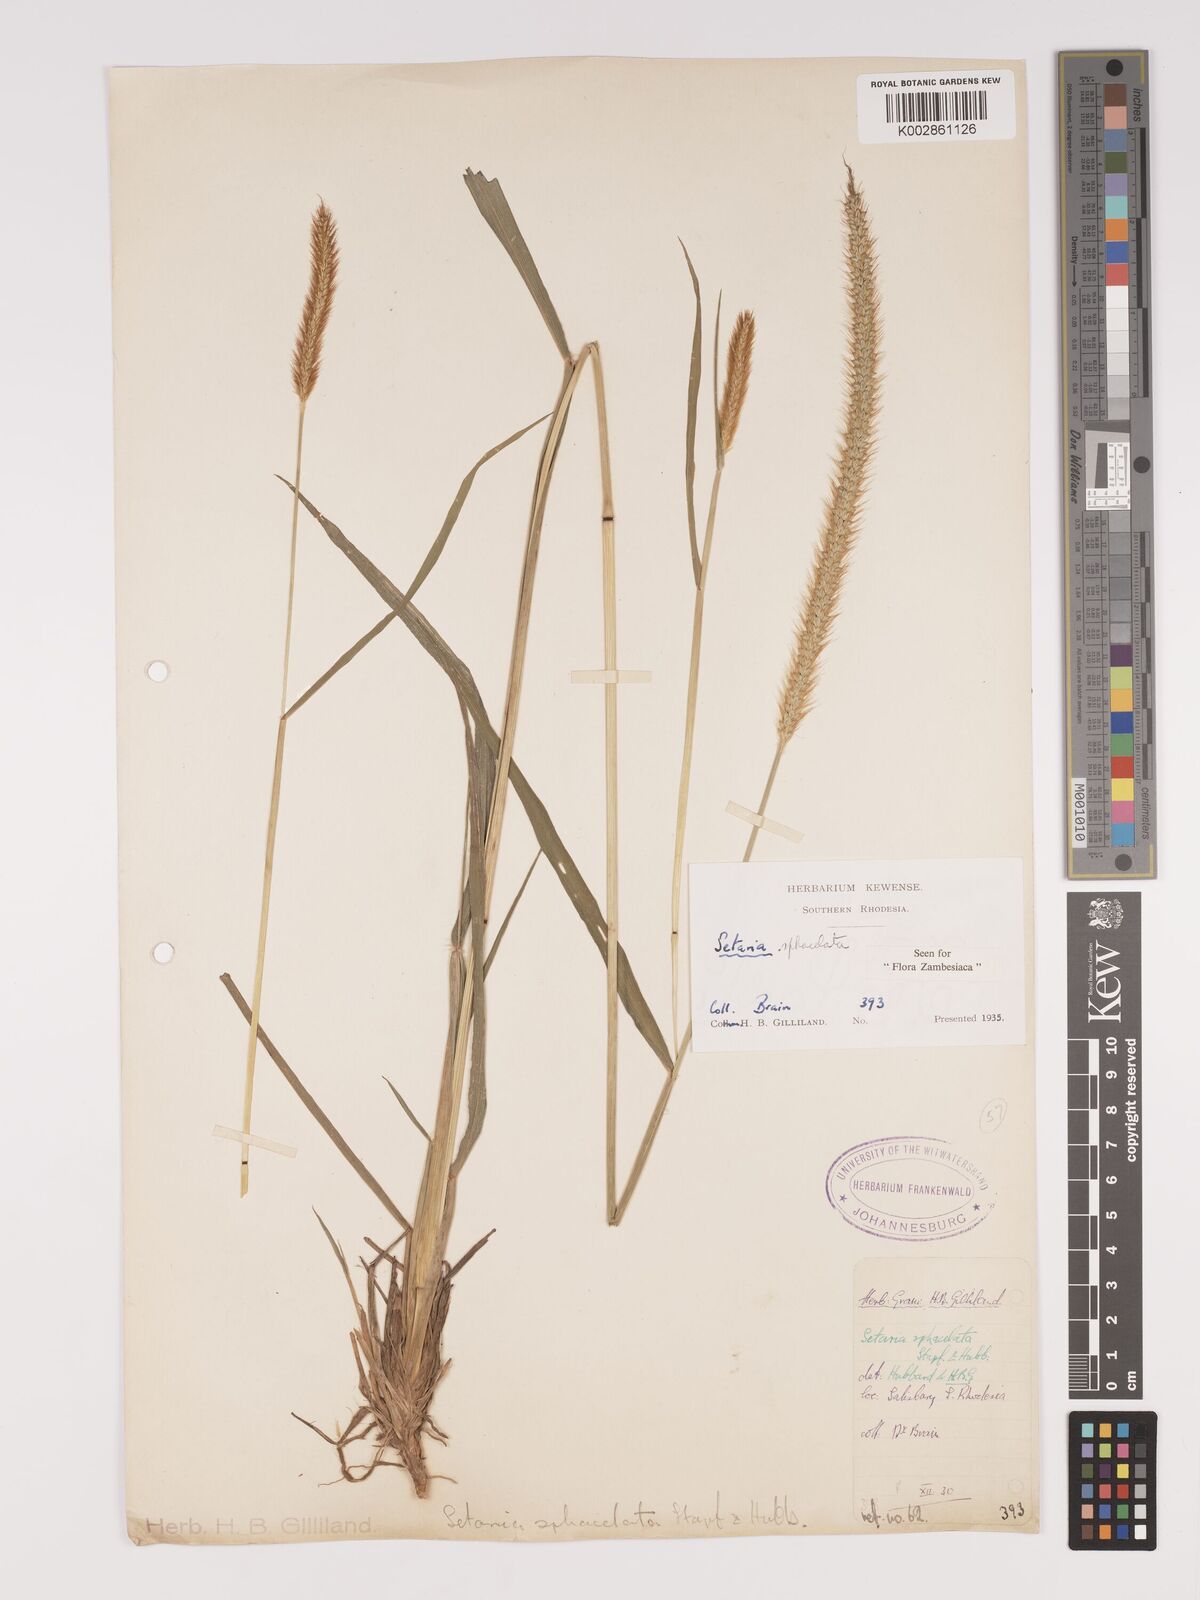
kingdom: Plantae
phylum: Tracheophyta
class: Liliopsida
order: Poales
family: Poaceae
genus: Setaria
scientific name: Setaria sphacelata
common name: African bristlegrass
